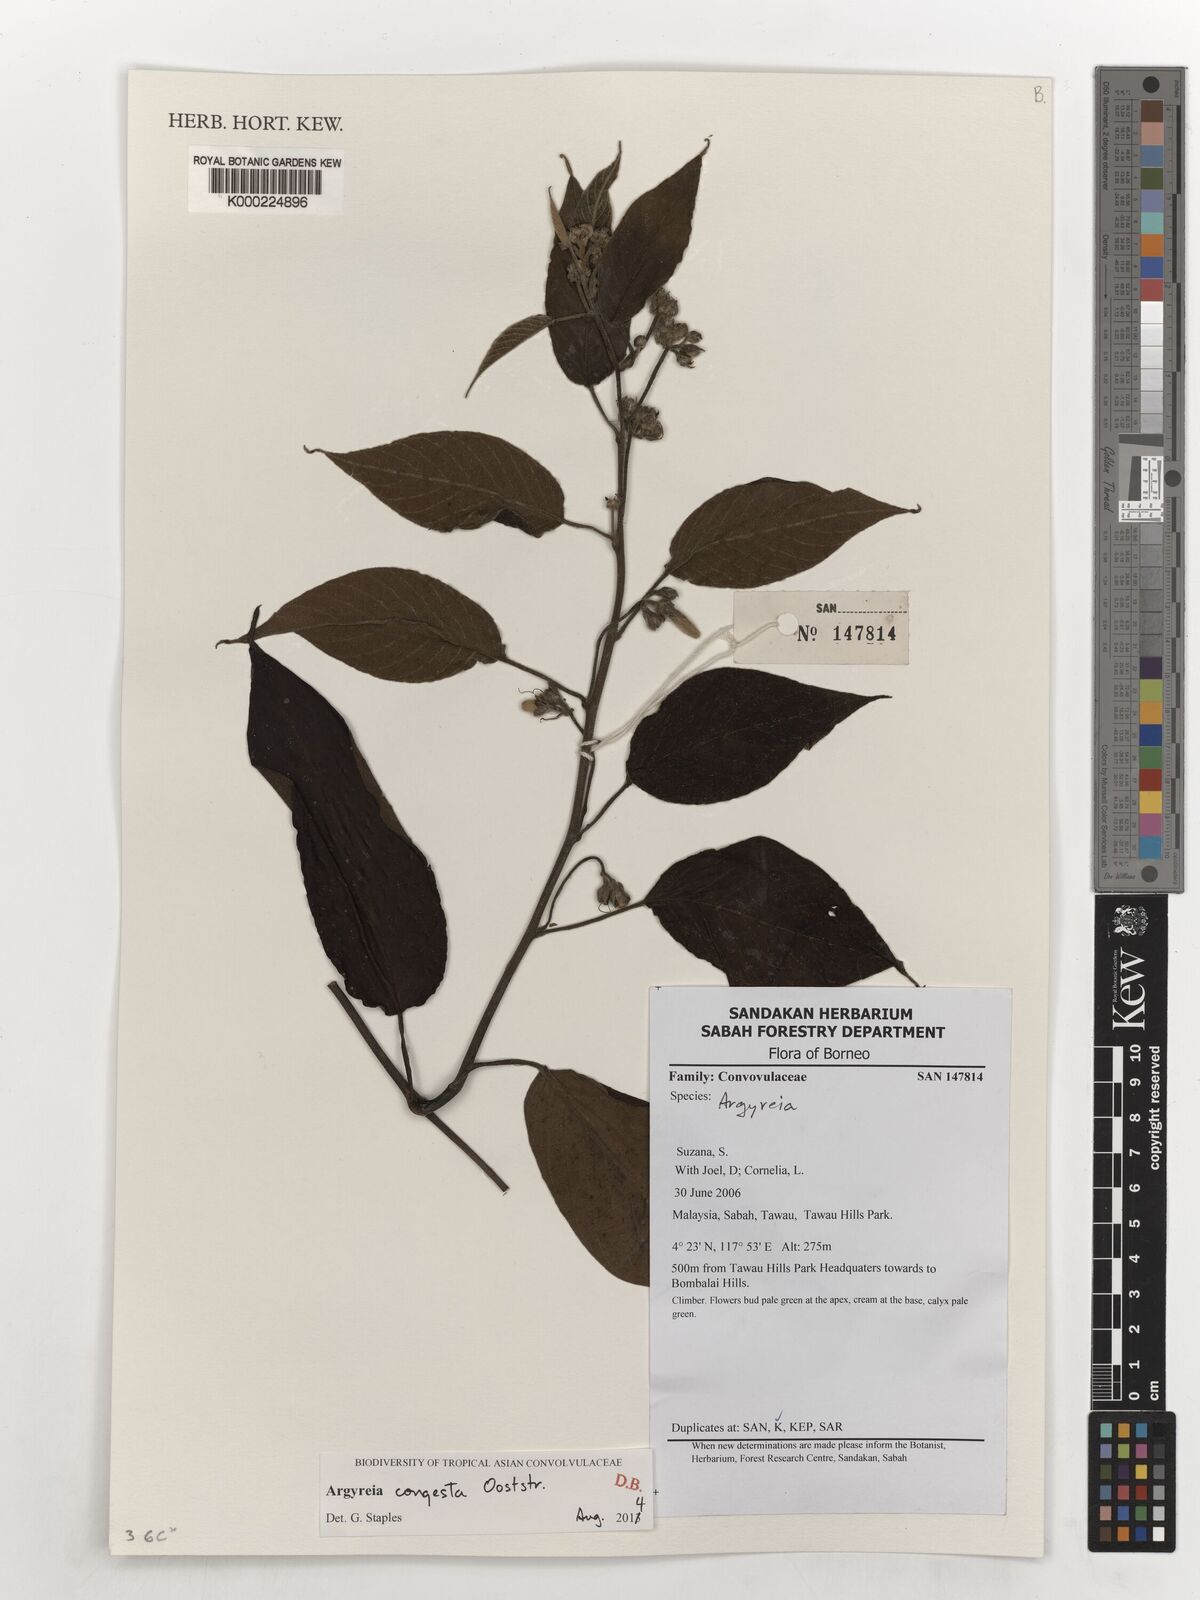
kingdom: Plantae
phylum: Tracheophyta
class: Magnoliopsida
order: Solanales
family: Convolvulaceae
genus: Argyreia
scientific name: Argyreia
